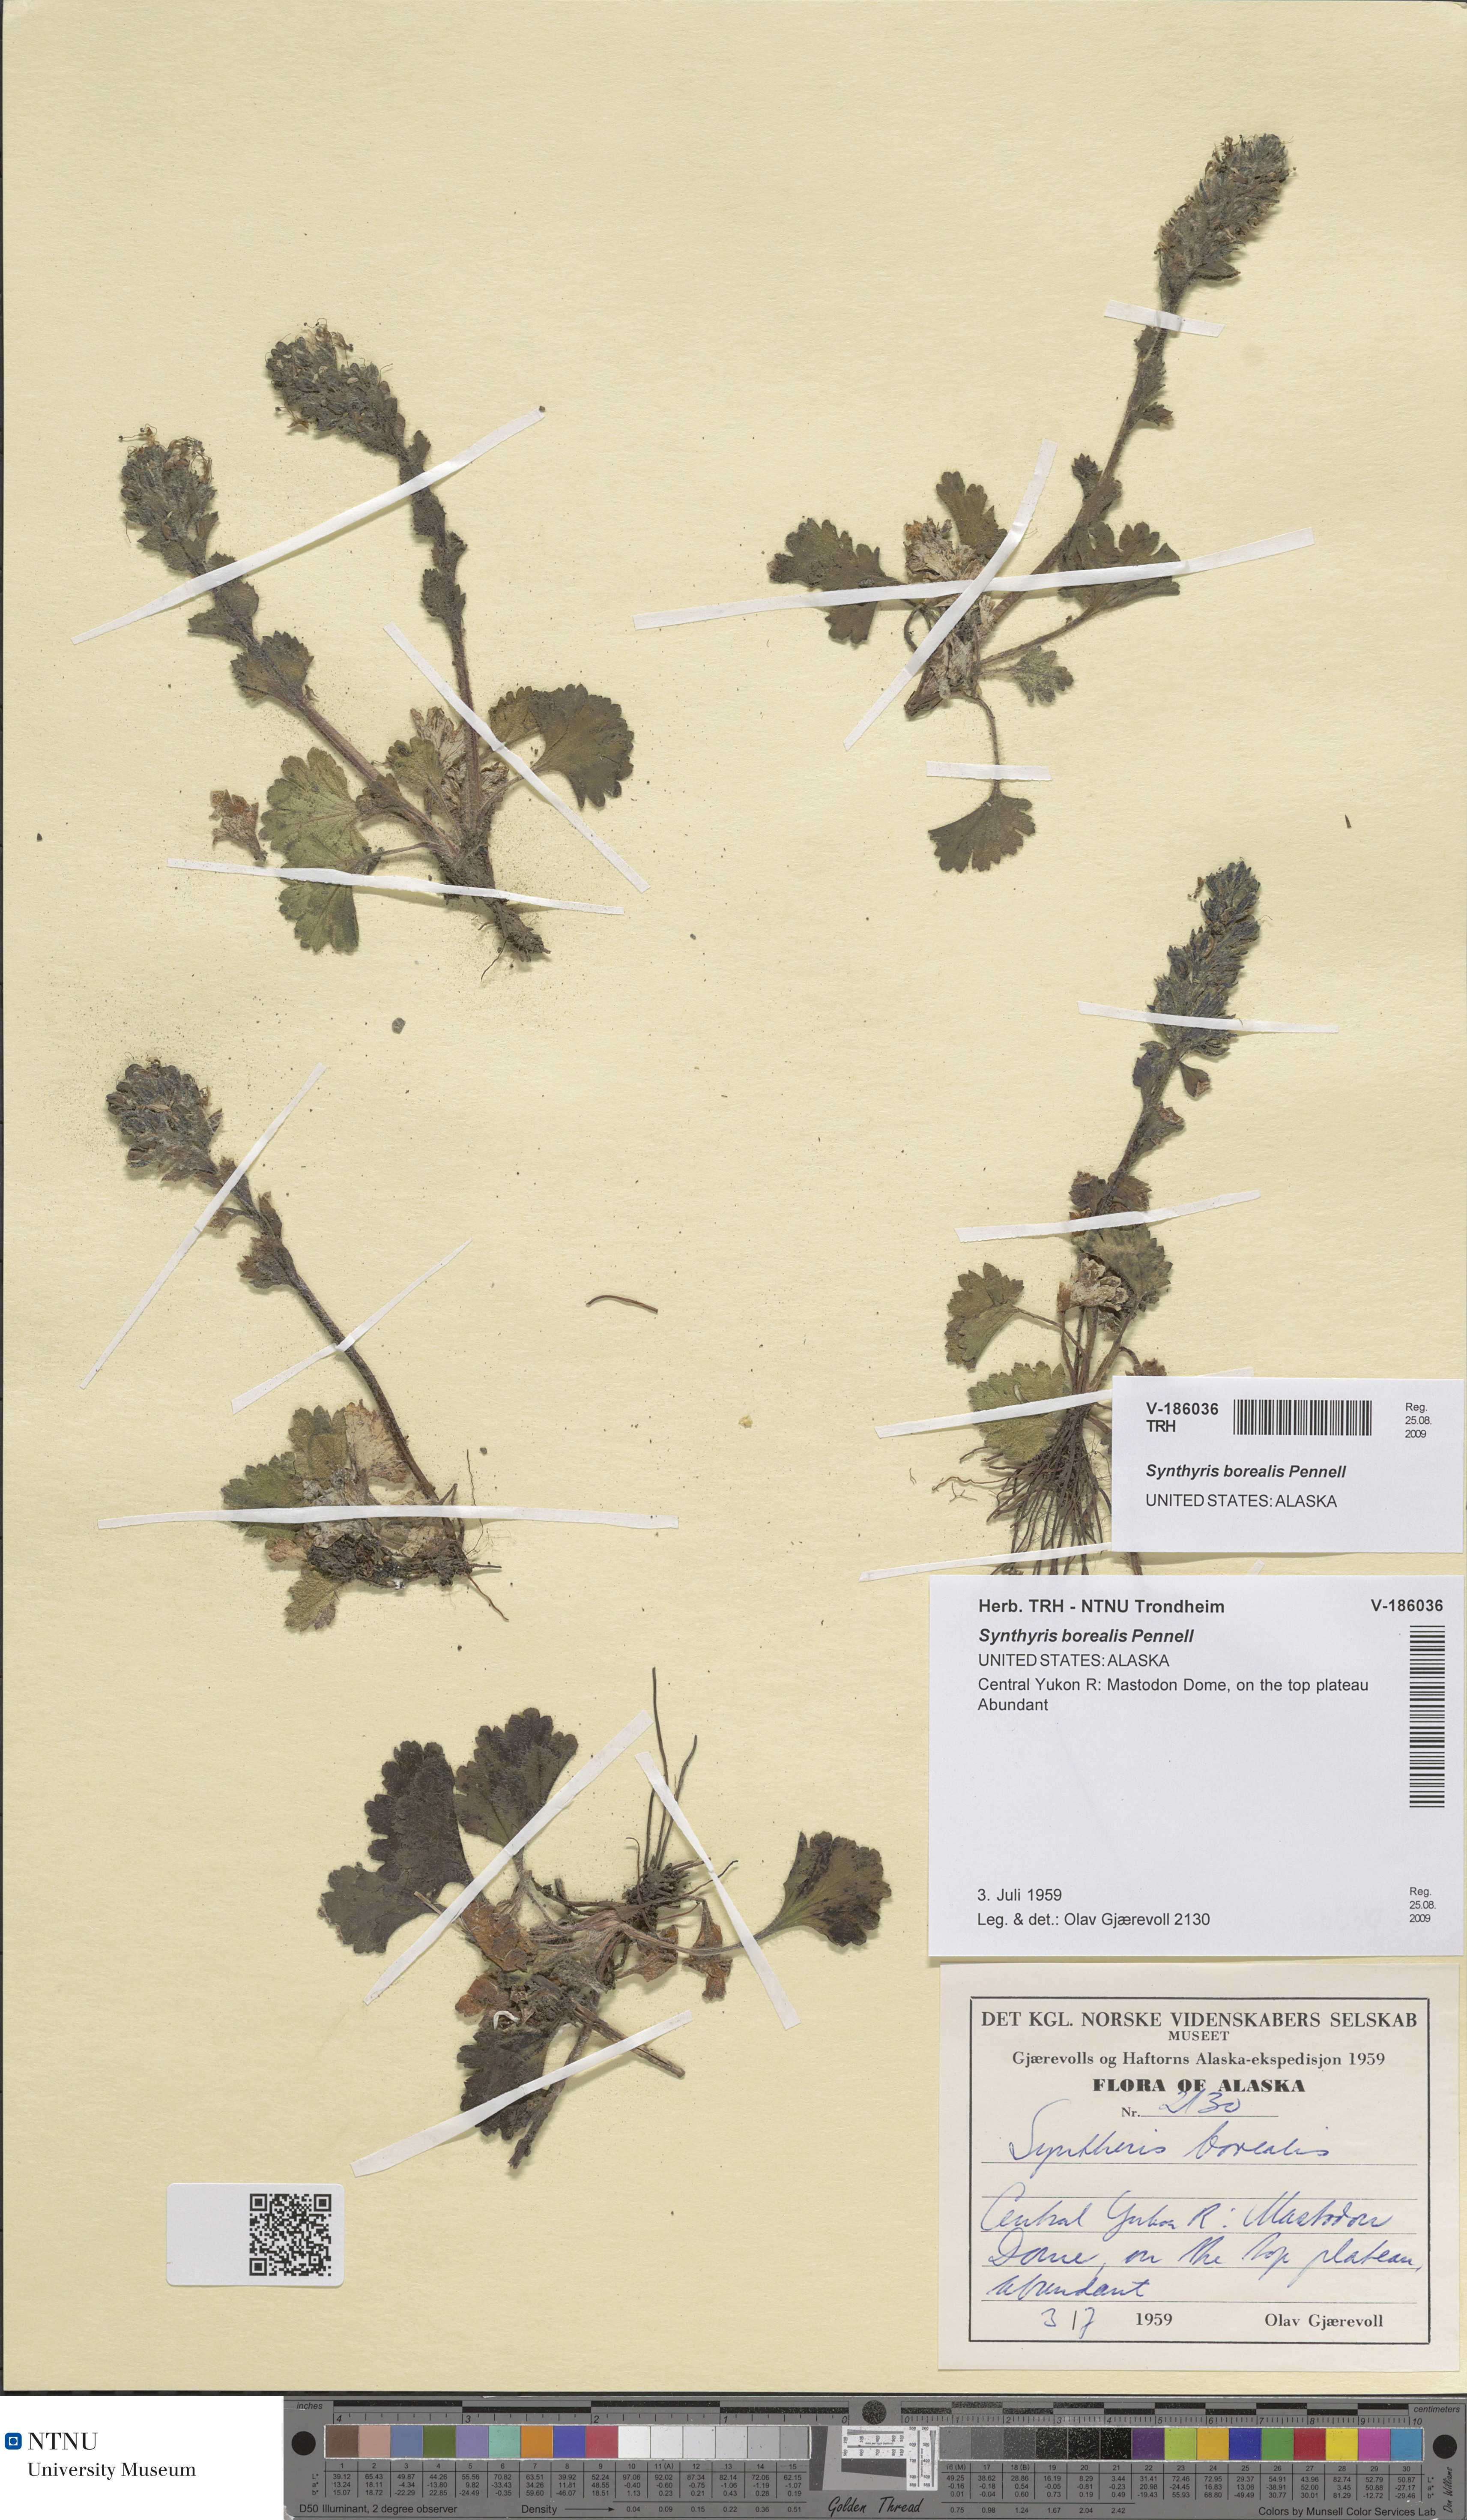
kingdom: Plantae
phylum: Tracheophyta
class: Magnoliopsida
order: Lamiales
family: Plantaginaceae
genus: Synthyris
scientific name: Synthyris borealis
